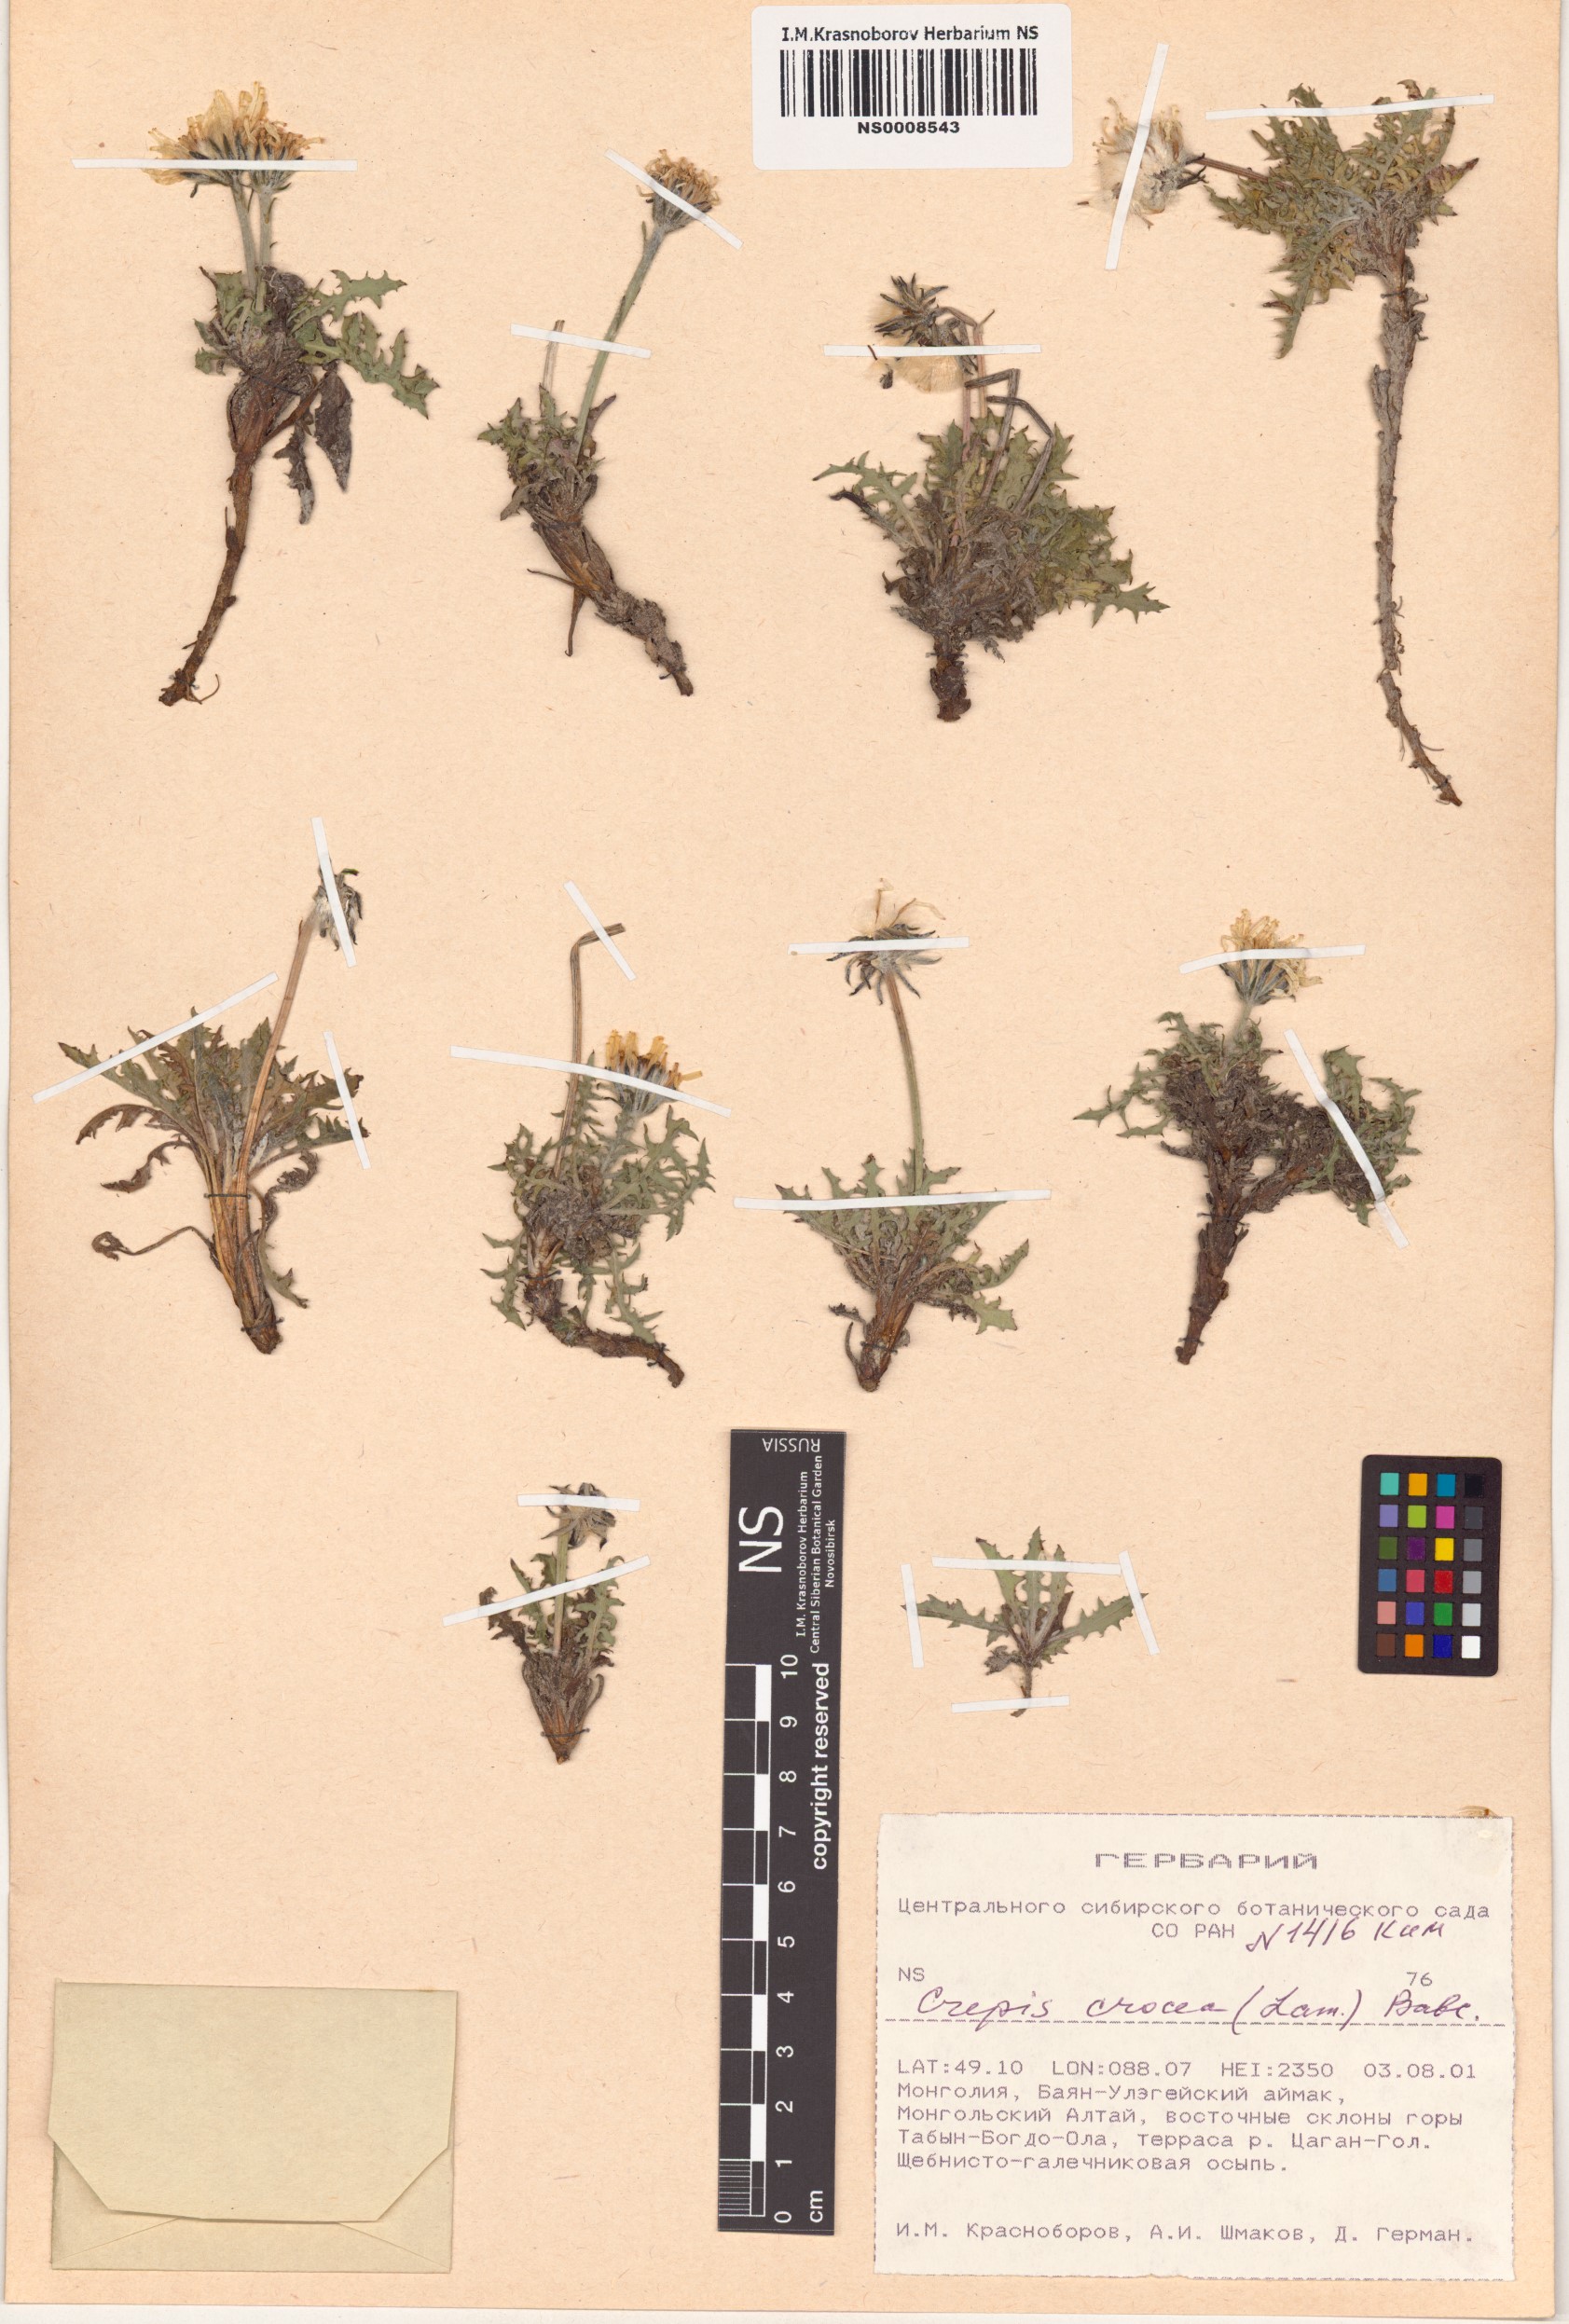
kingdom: Plantae
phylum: Tracheophyta
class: Magnoliopsida
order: Asterales
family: Asteraceae
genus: Crepis
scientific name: Crepis crocea
